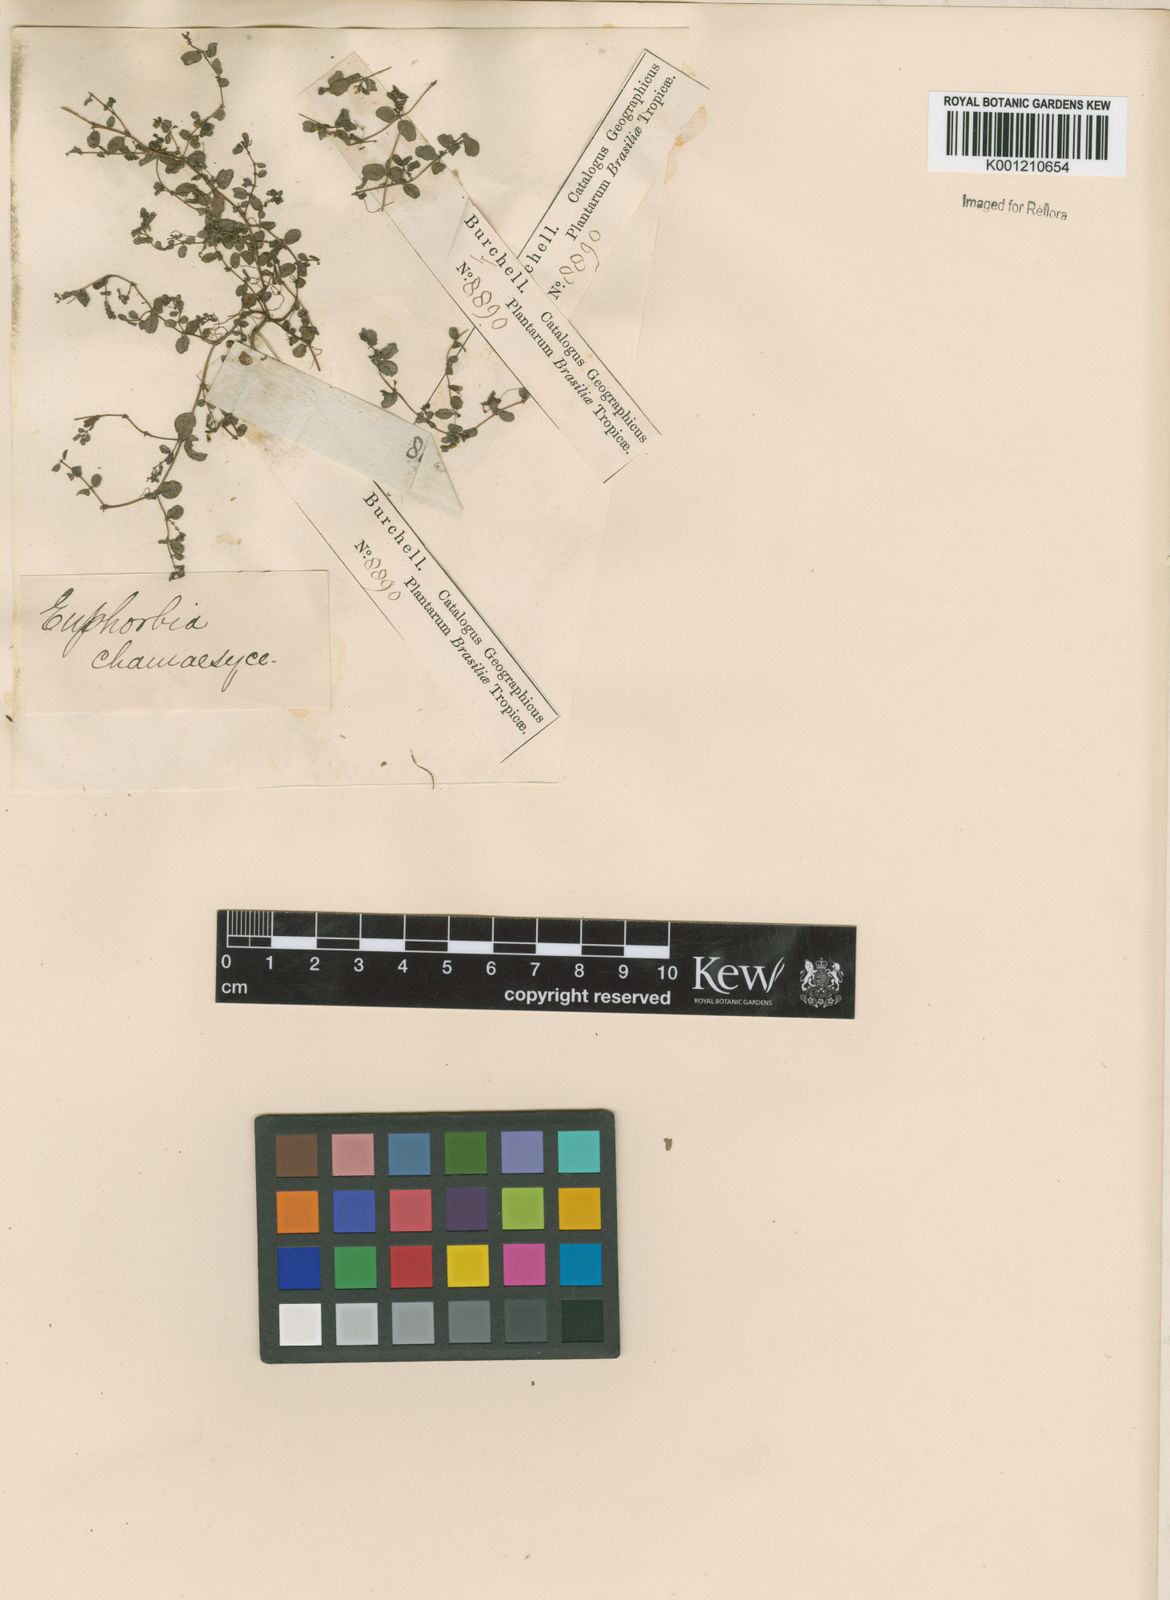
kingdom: Plantae
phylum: Tracheophyta
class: Magnoliopsida
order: Malpighiales
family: Euphorbiaceae
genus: Euphorbia
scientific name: Euphorbia prostrata
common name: Prostrate sandmat
